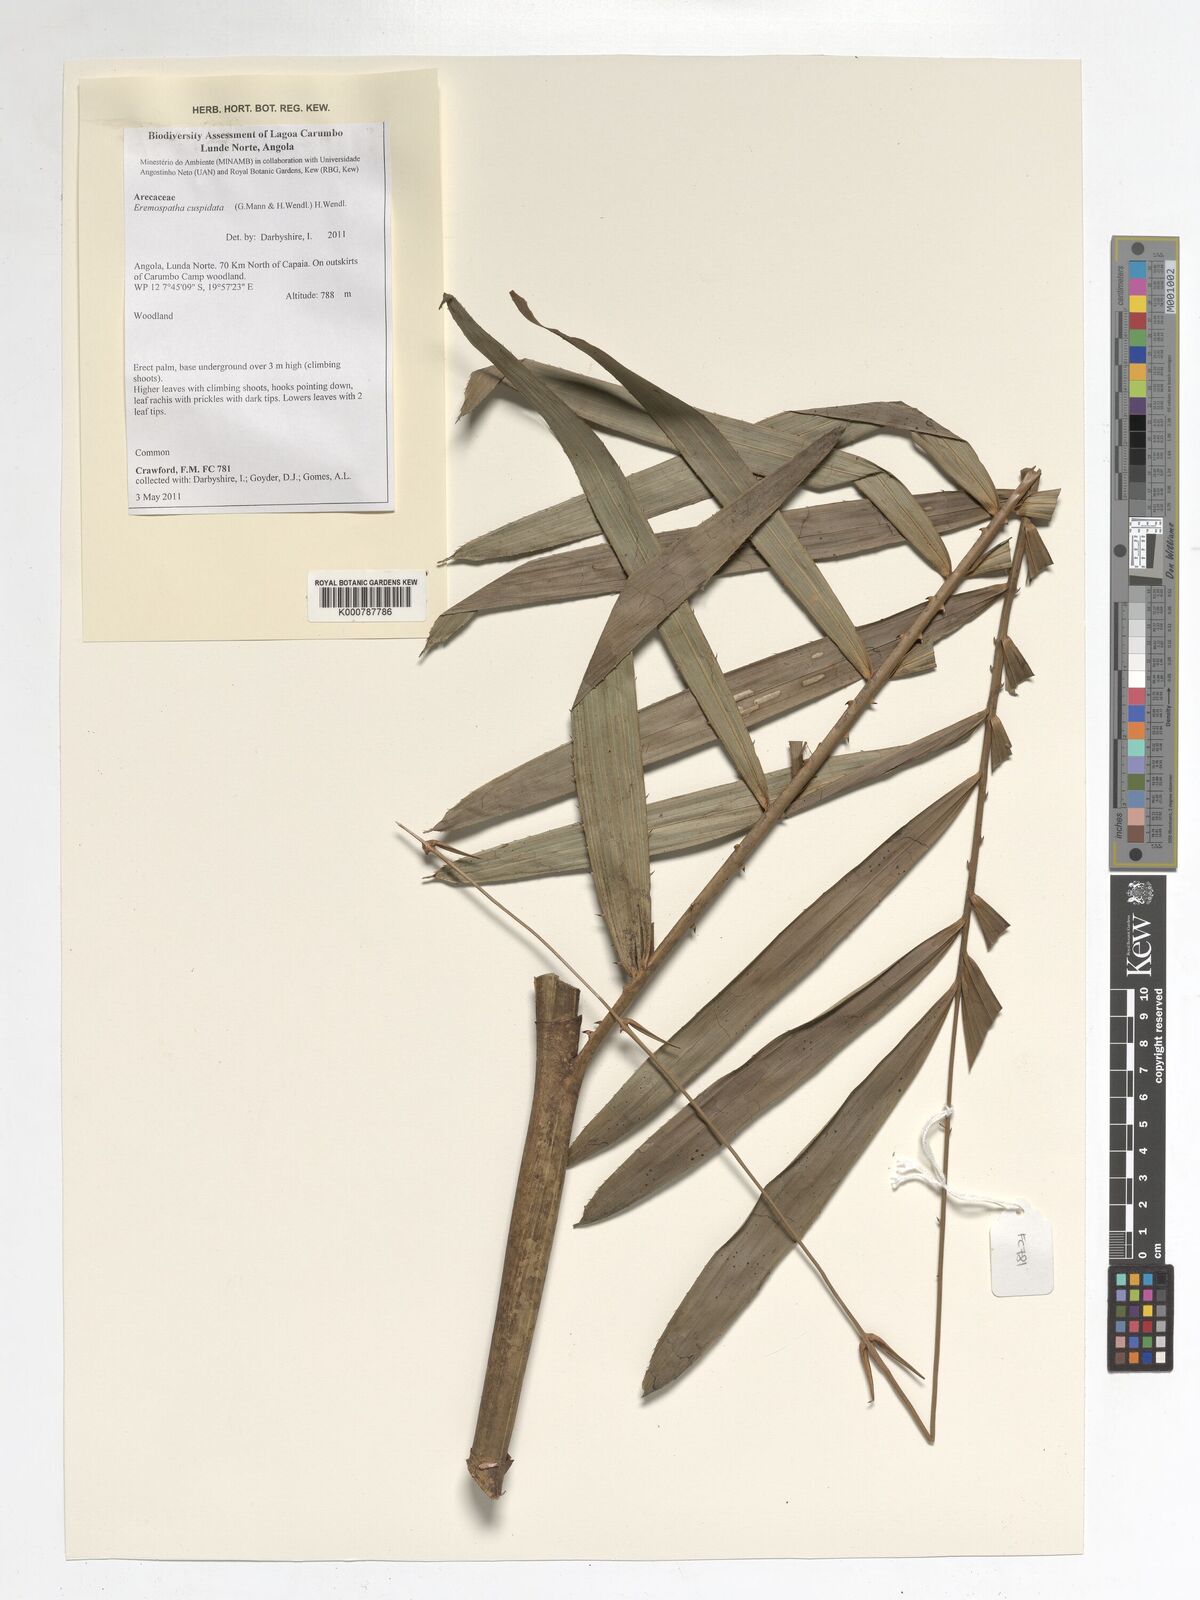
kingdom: Plantae
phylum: Tracheophyta
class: Liliopsida
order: Arecales
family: Arecaceae
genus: Eremospatha
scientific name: Eremospatha cuspidata
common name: Rattan
